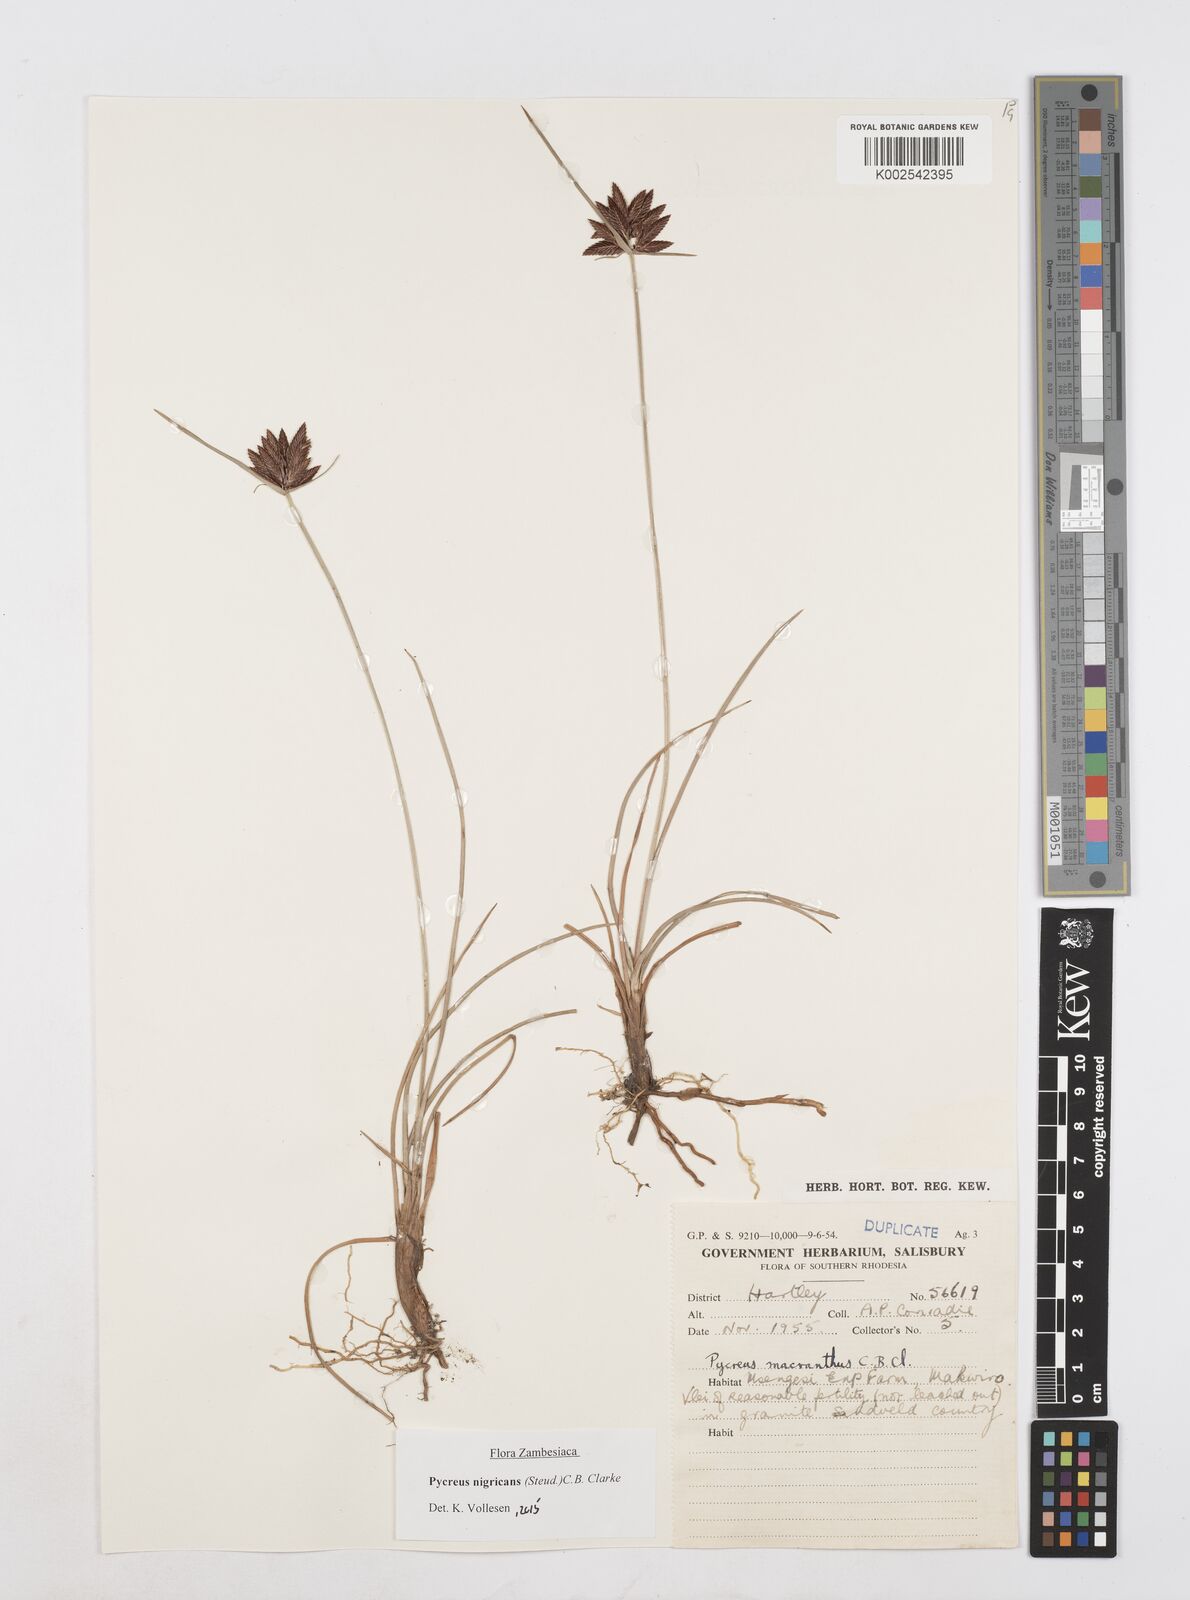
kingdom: Plantae
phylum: Tracheophyta
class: Liliopsida
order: Poales
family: Cyperaceae
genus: Cyperus
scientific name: Cyperus nigricans
